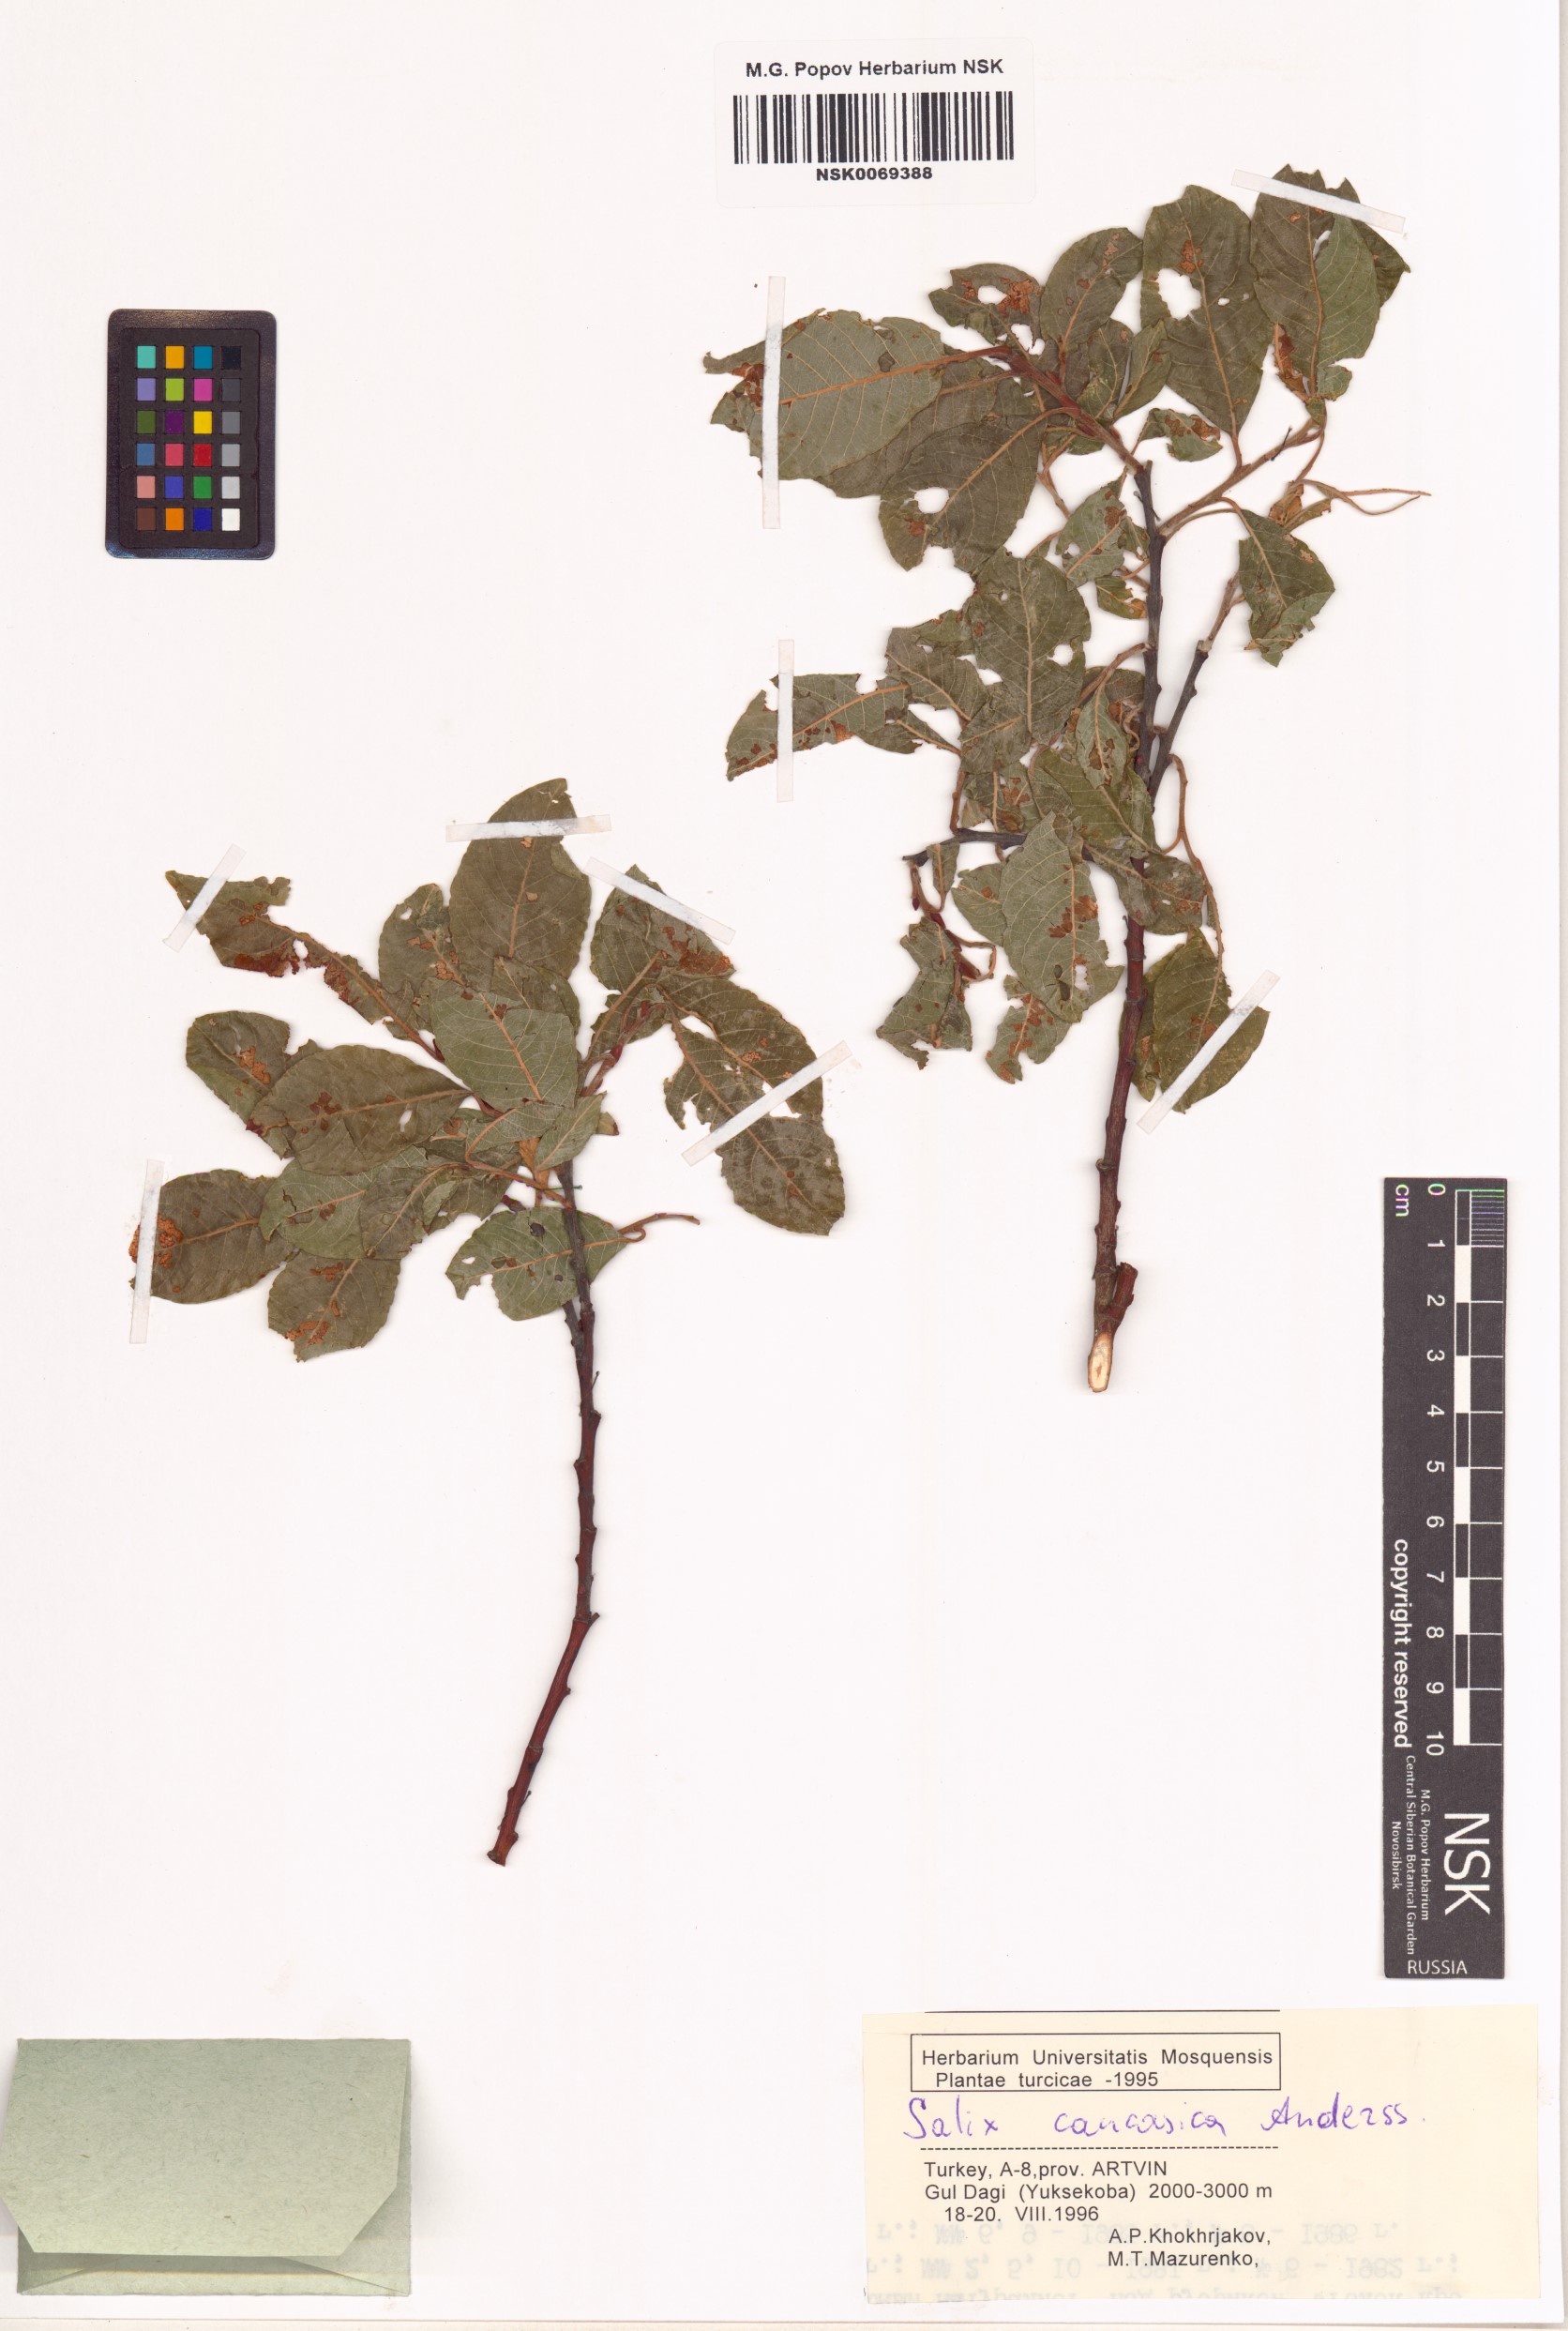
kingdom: Plantae
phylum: Tracheophyta
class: Magnoliopsida
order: Malpighiales
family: Salicaceae
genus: Salix
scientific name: Salix caucasica
